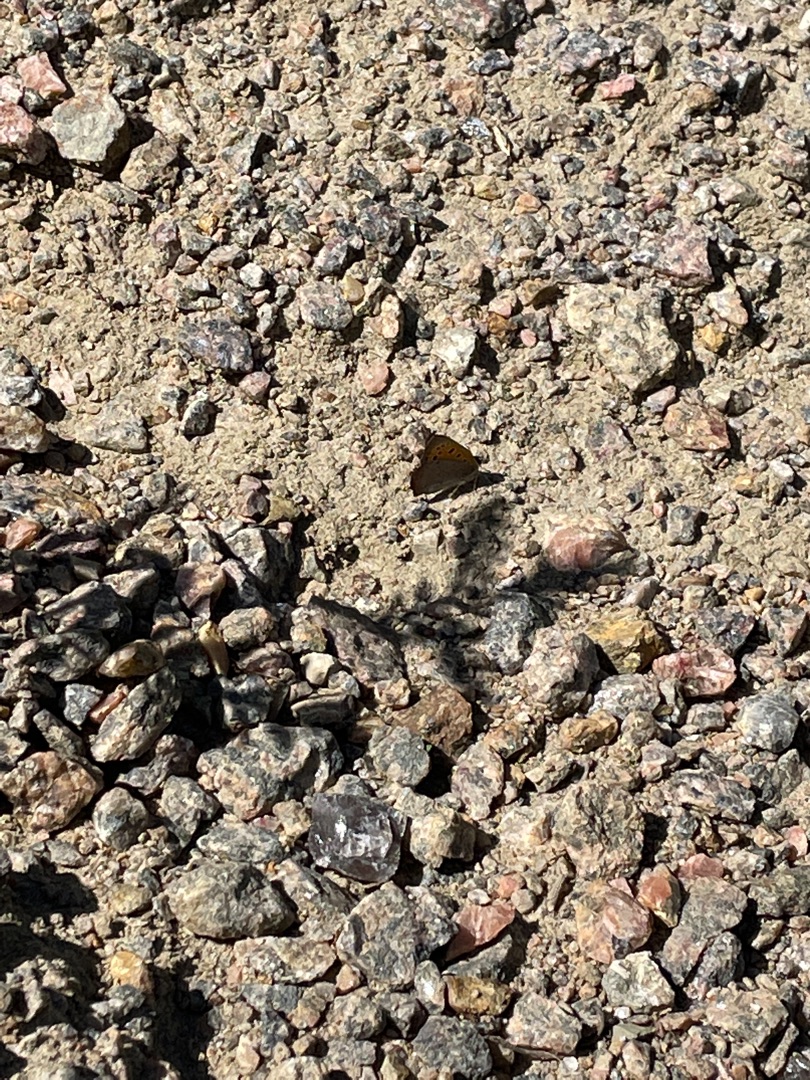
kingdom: Animalia
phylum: Arthropoda
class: Insecta
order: Lepidoptera
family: Lycaenidae
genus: Lycaena
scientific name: Lycaena phlaeas
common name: Lille ildfugl
